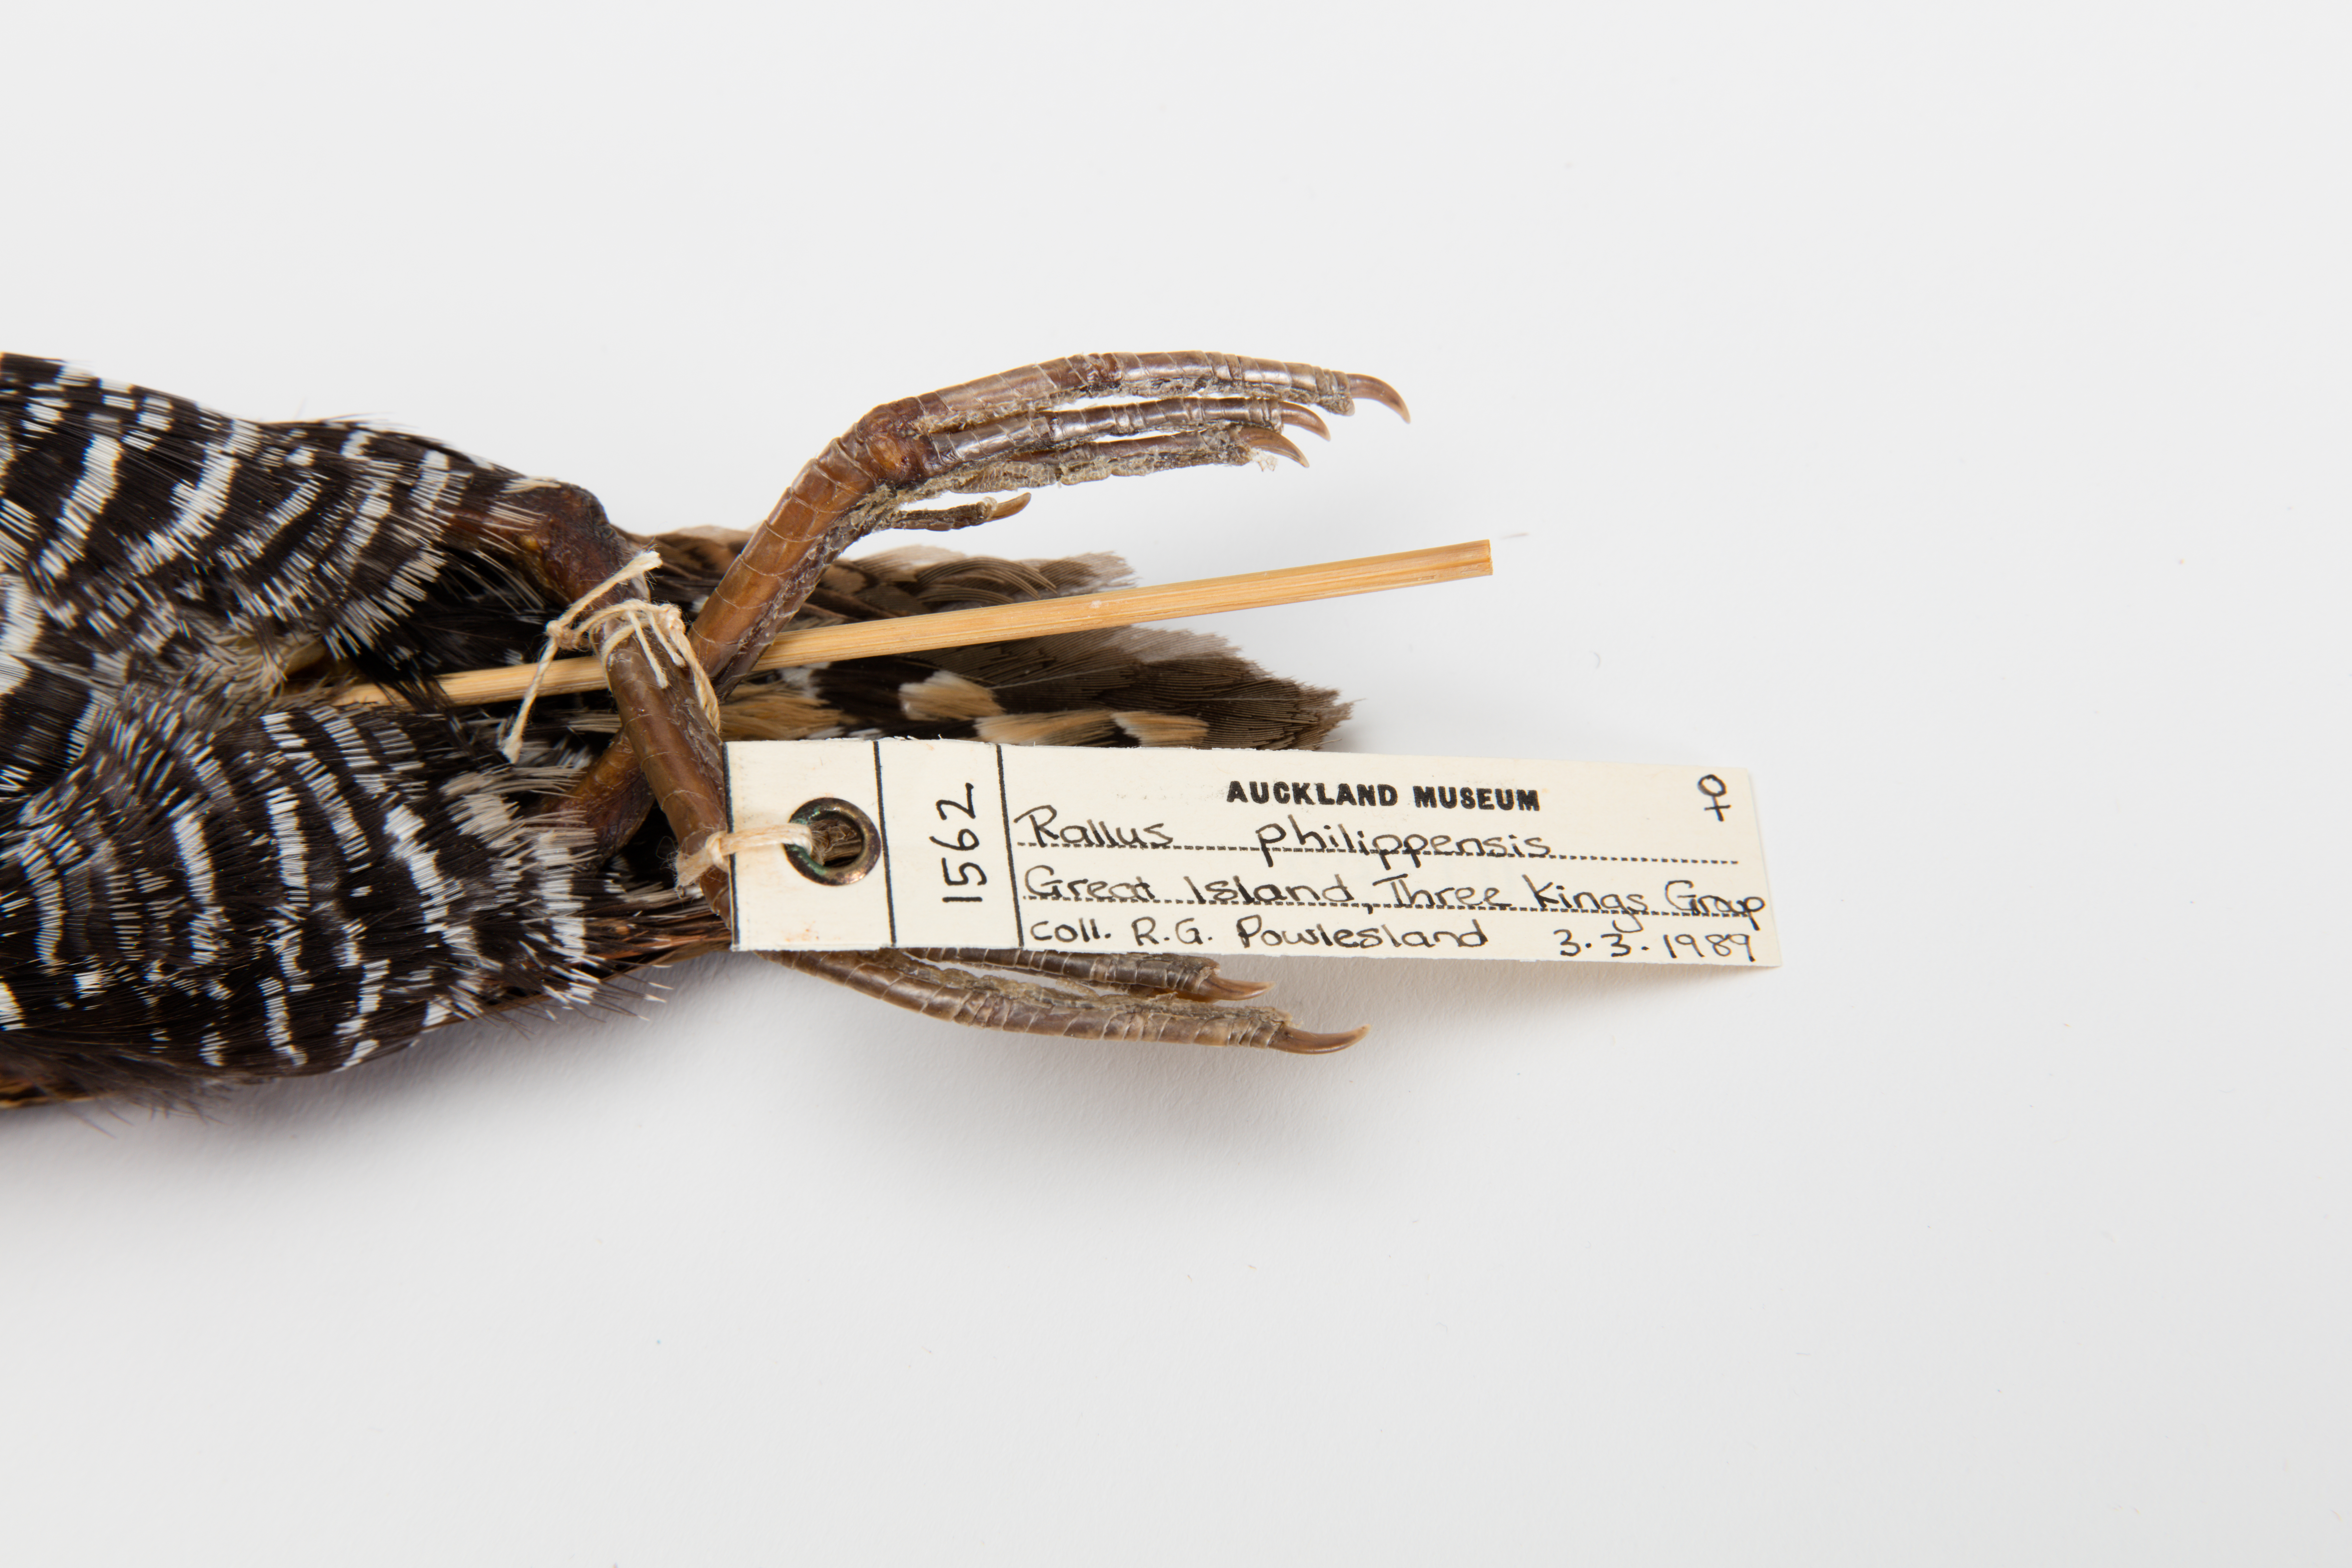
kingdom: Animalia
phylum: Chordata
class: Aves
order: Gruiformes
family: Rallidae
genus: Gallirallus
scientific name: Gallirallus philippensis
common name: Buff-banded rail
